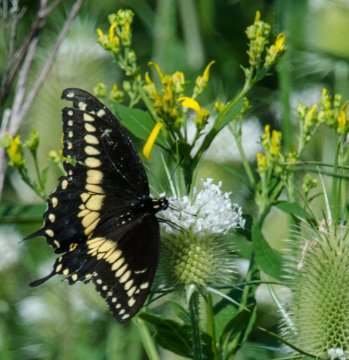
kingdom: Animalia
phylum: Arthropoda
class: Insecta
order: Lepidoptera
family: Papilionidae
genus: Papilio
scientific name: Papilio polyxenes
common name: Black Swallowtail
